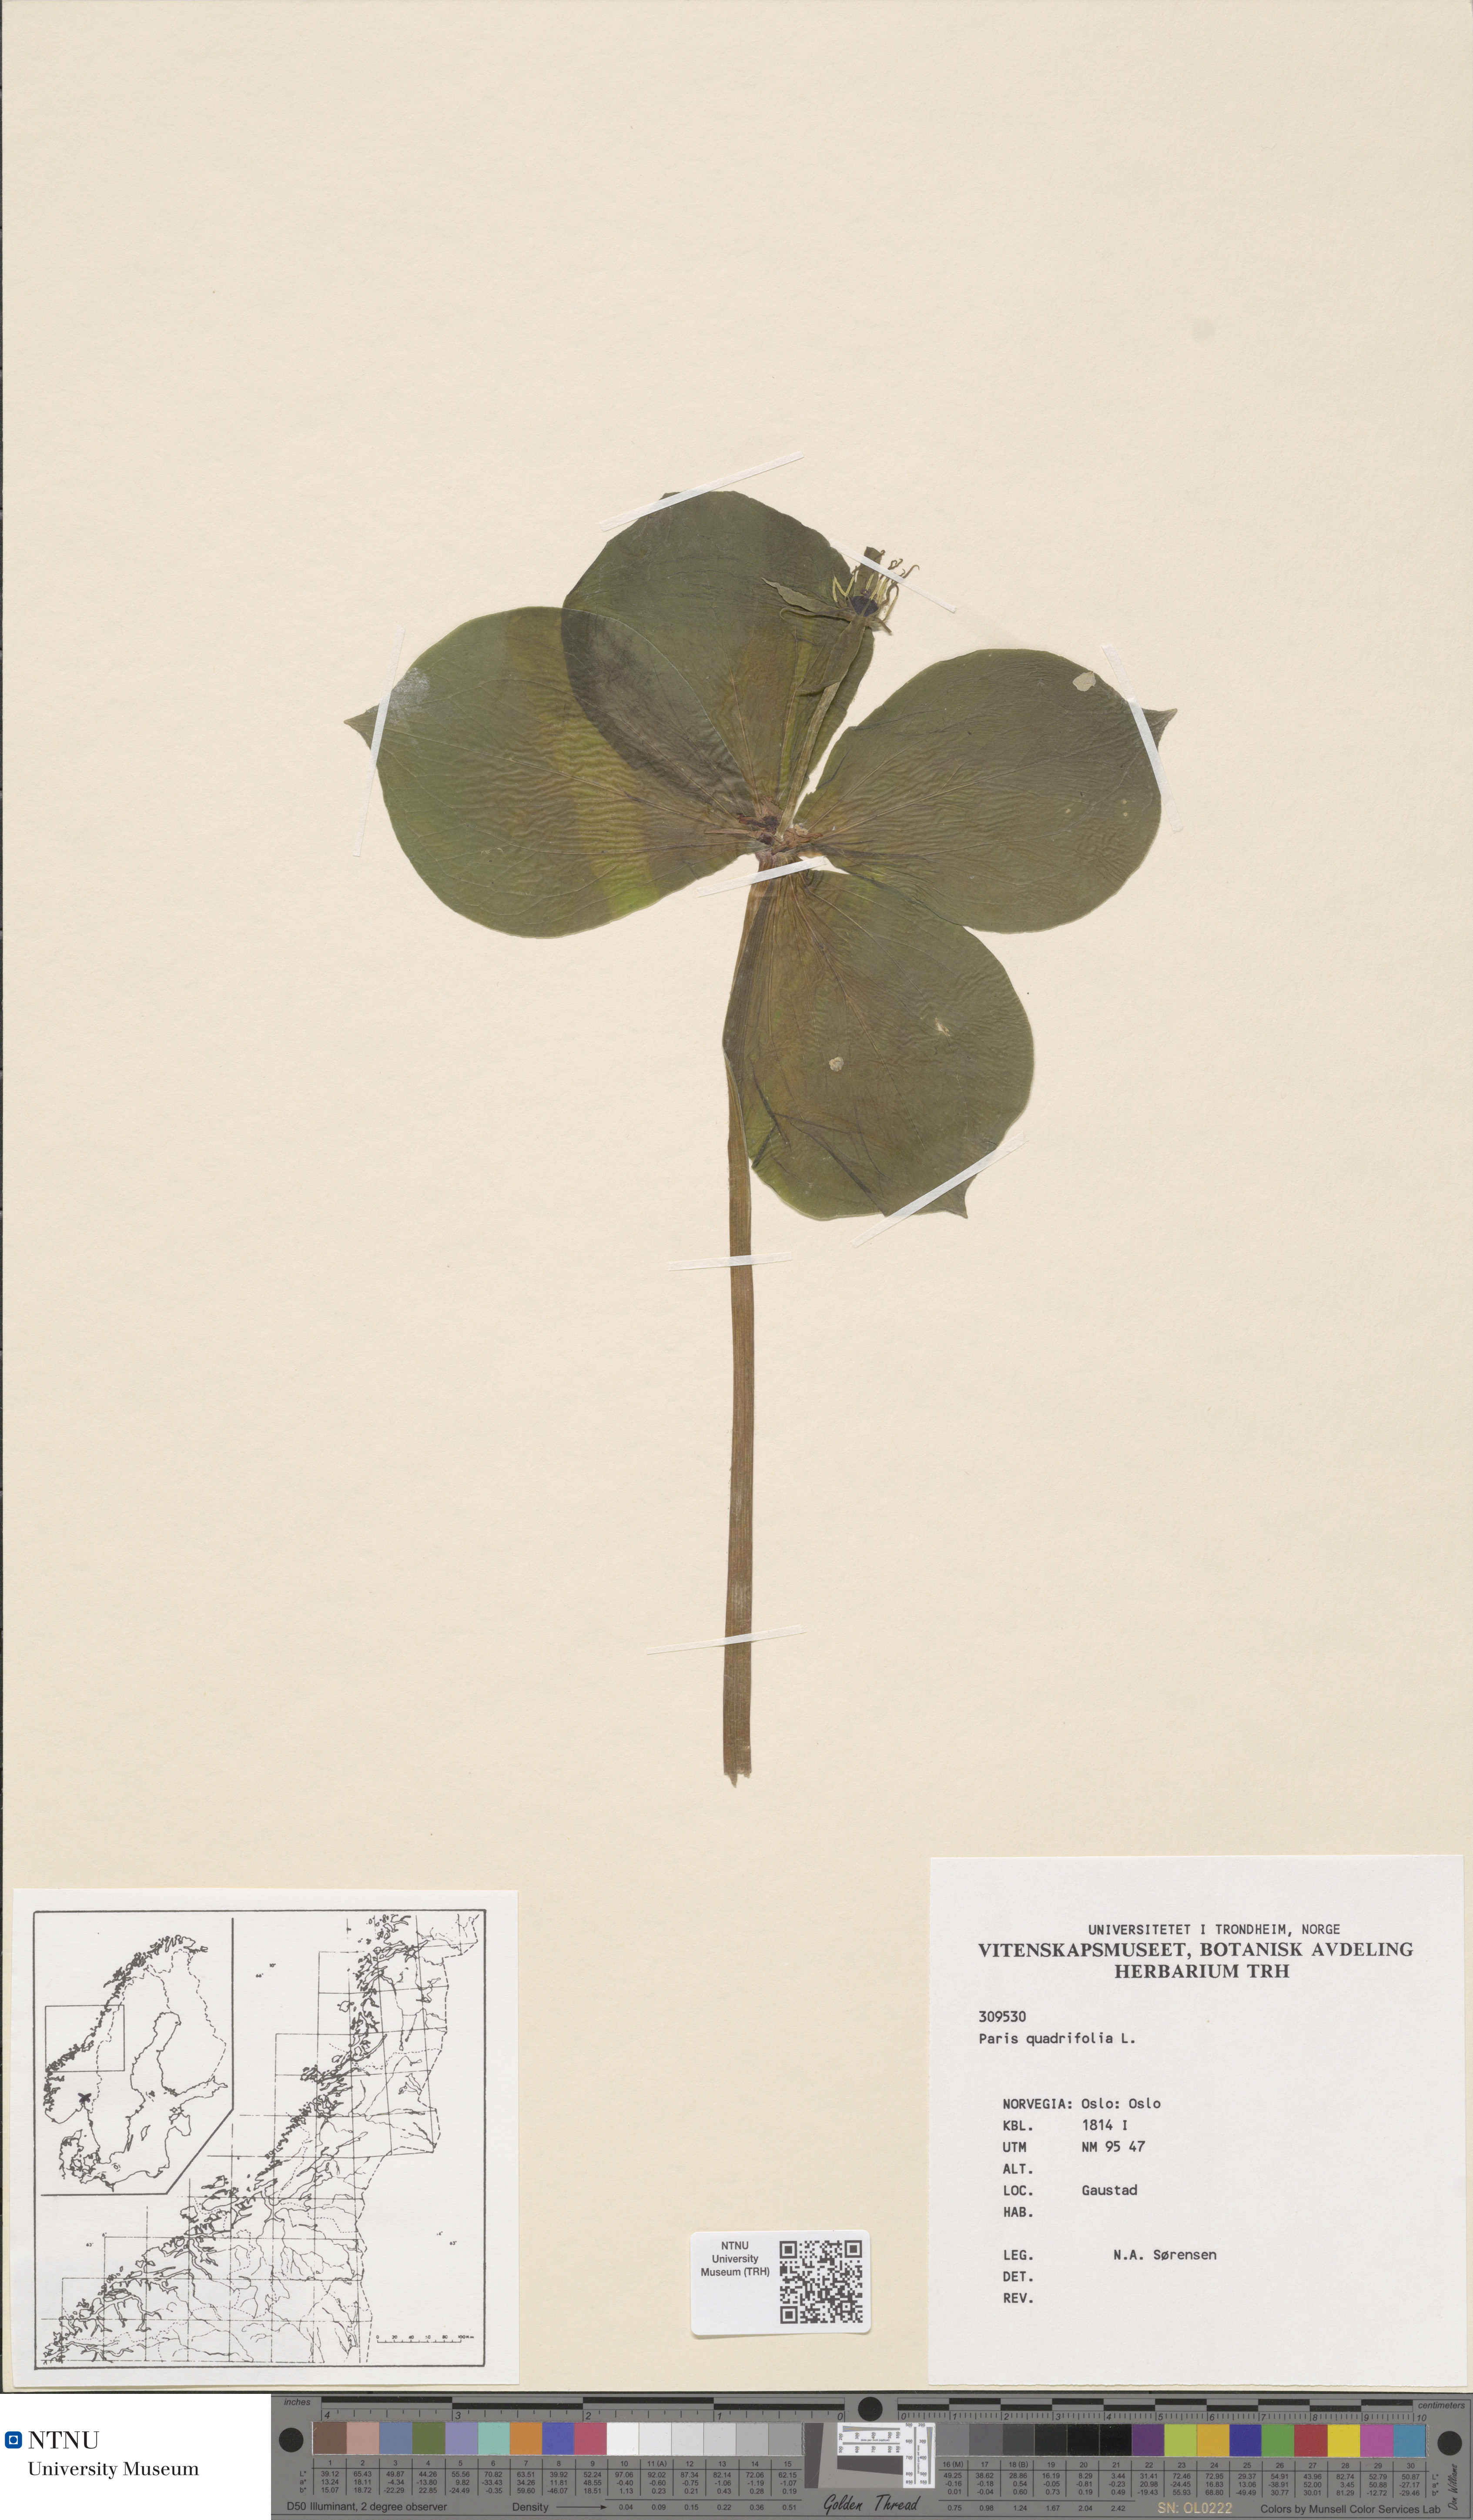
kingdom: Plantae
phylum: Tracheophyta
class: Liliopsida
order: Liliales
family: Melanthiaceae
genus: Paris
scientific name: Paris quadrifolia
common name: Herb-paris
